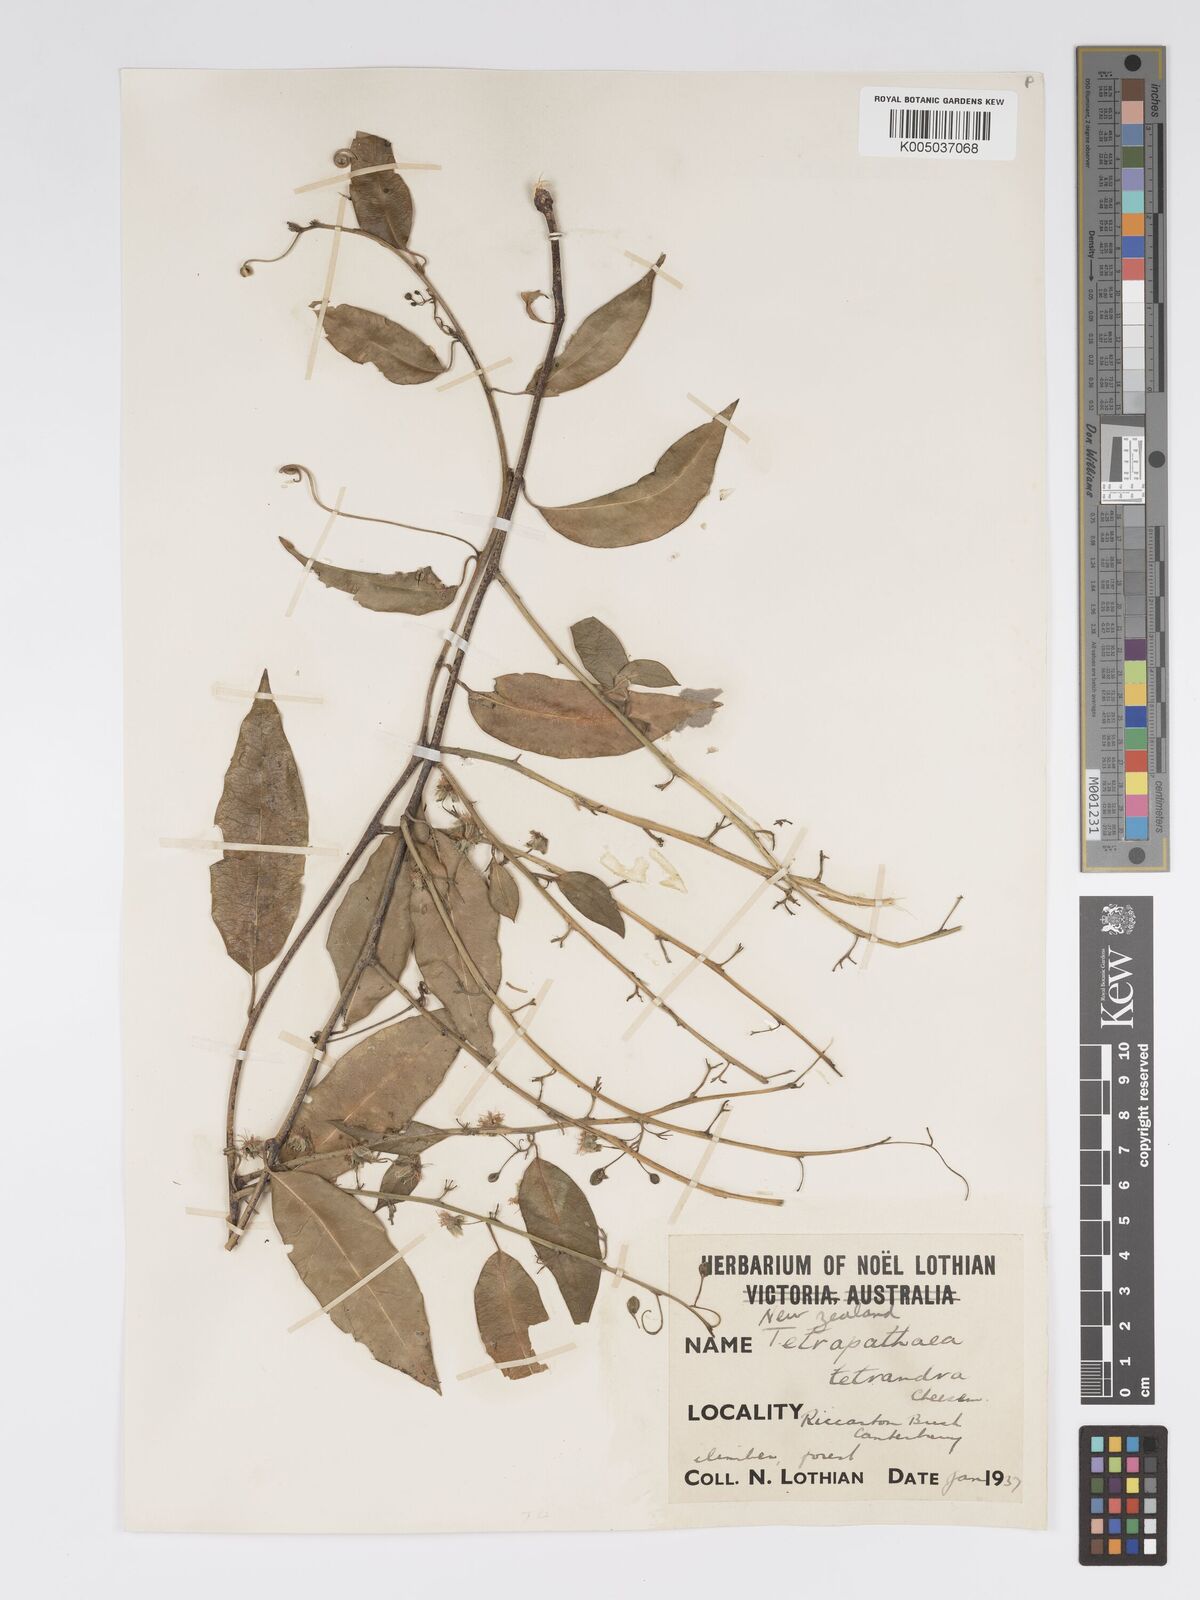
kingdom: Plantae
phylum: Tracheophyta
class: Magnoliopsida
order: Malpighiales
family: Passifloraceae
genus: Passiflora
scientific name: Passiflora tetrandra
